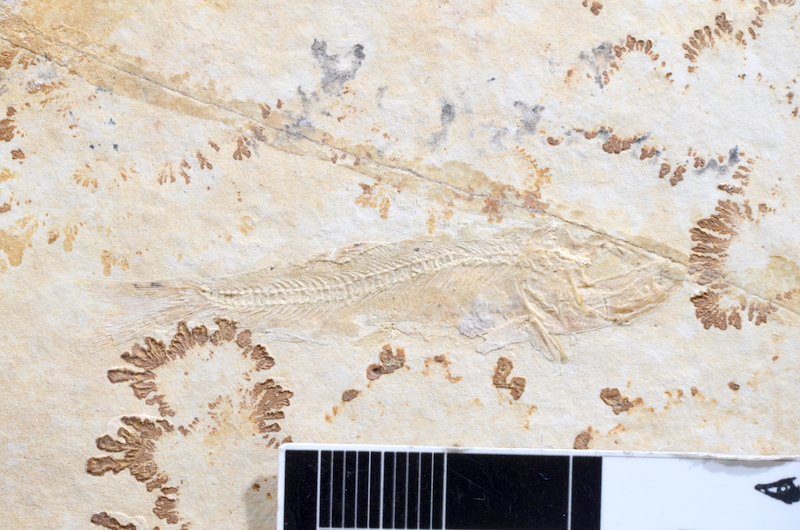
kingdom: Animalia
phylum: Chordata
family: Ascalaboidae
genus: Tharsis
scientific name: Tharsis dubius
